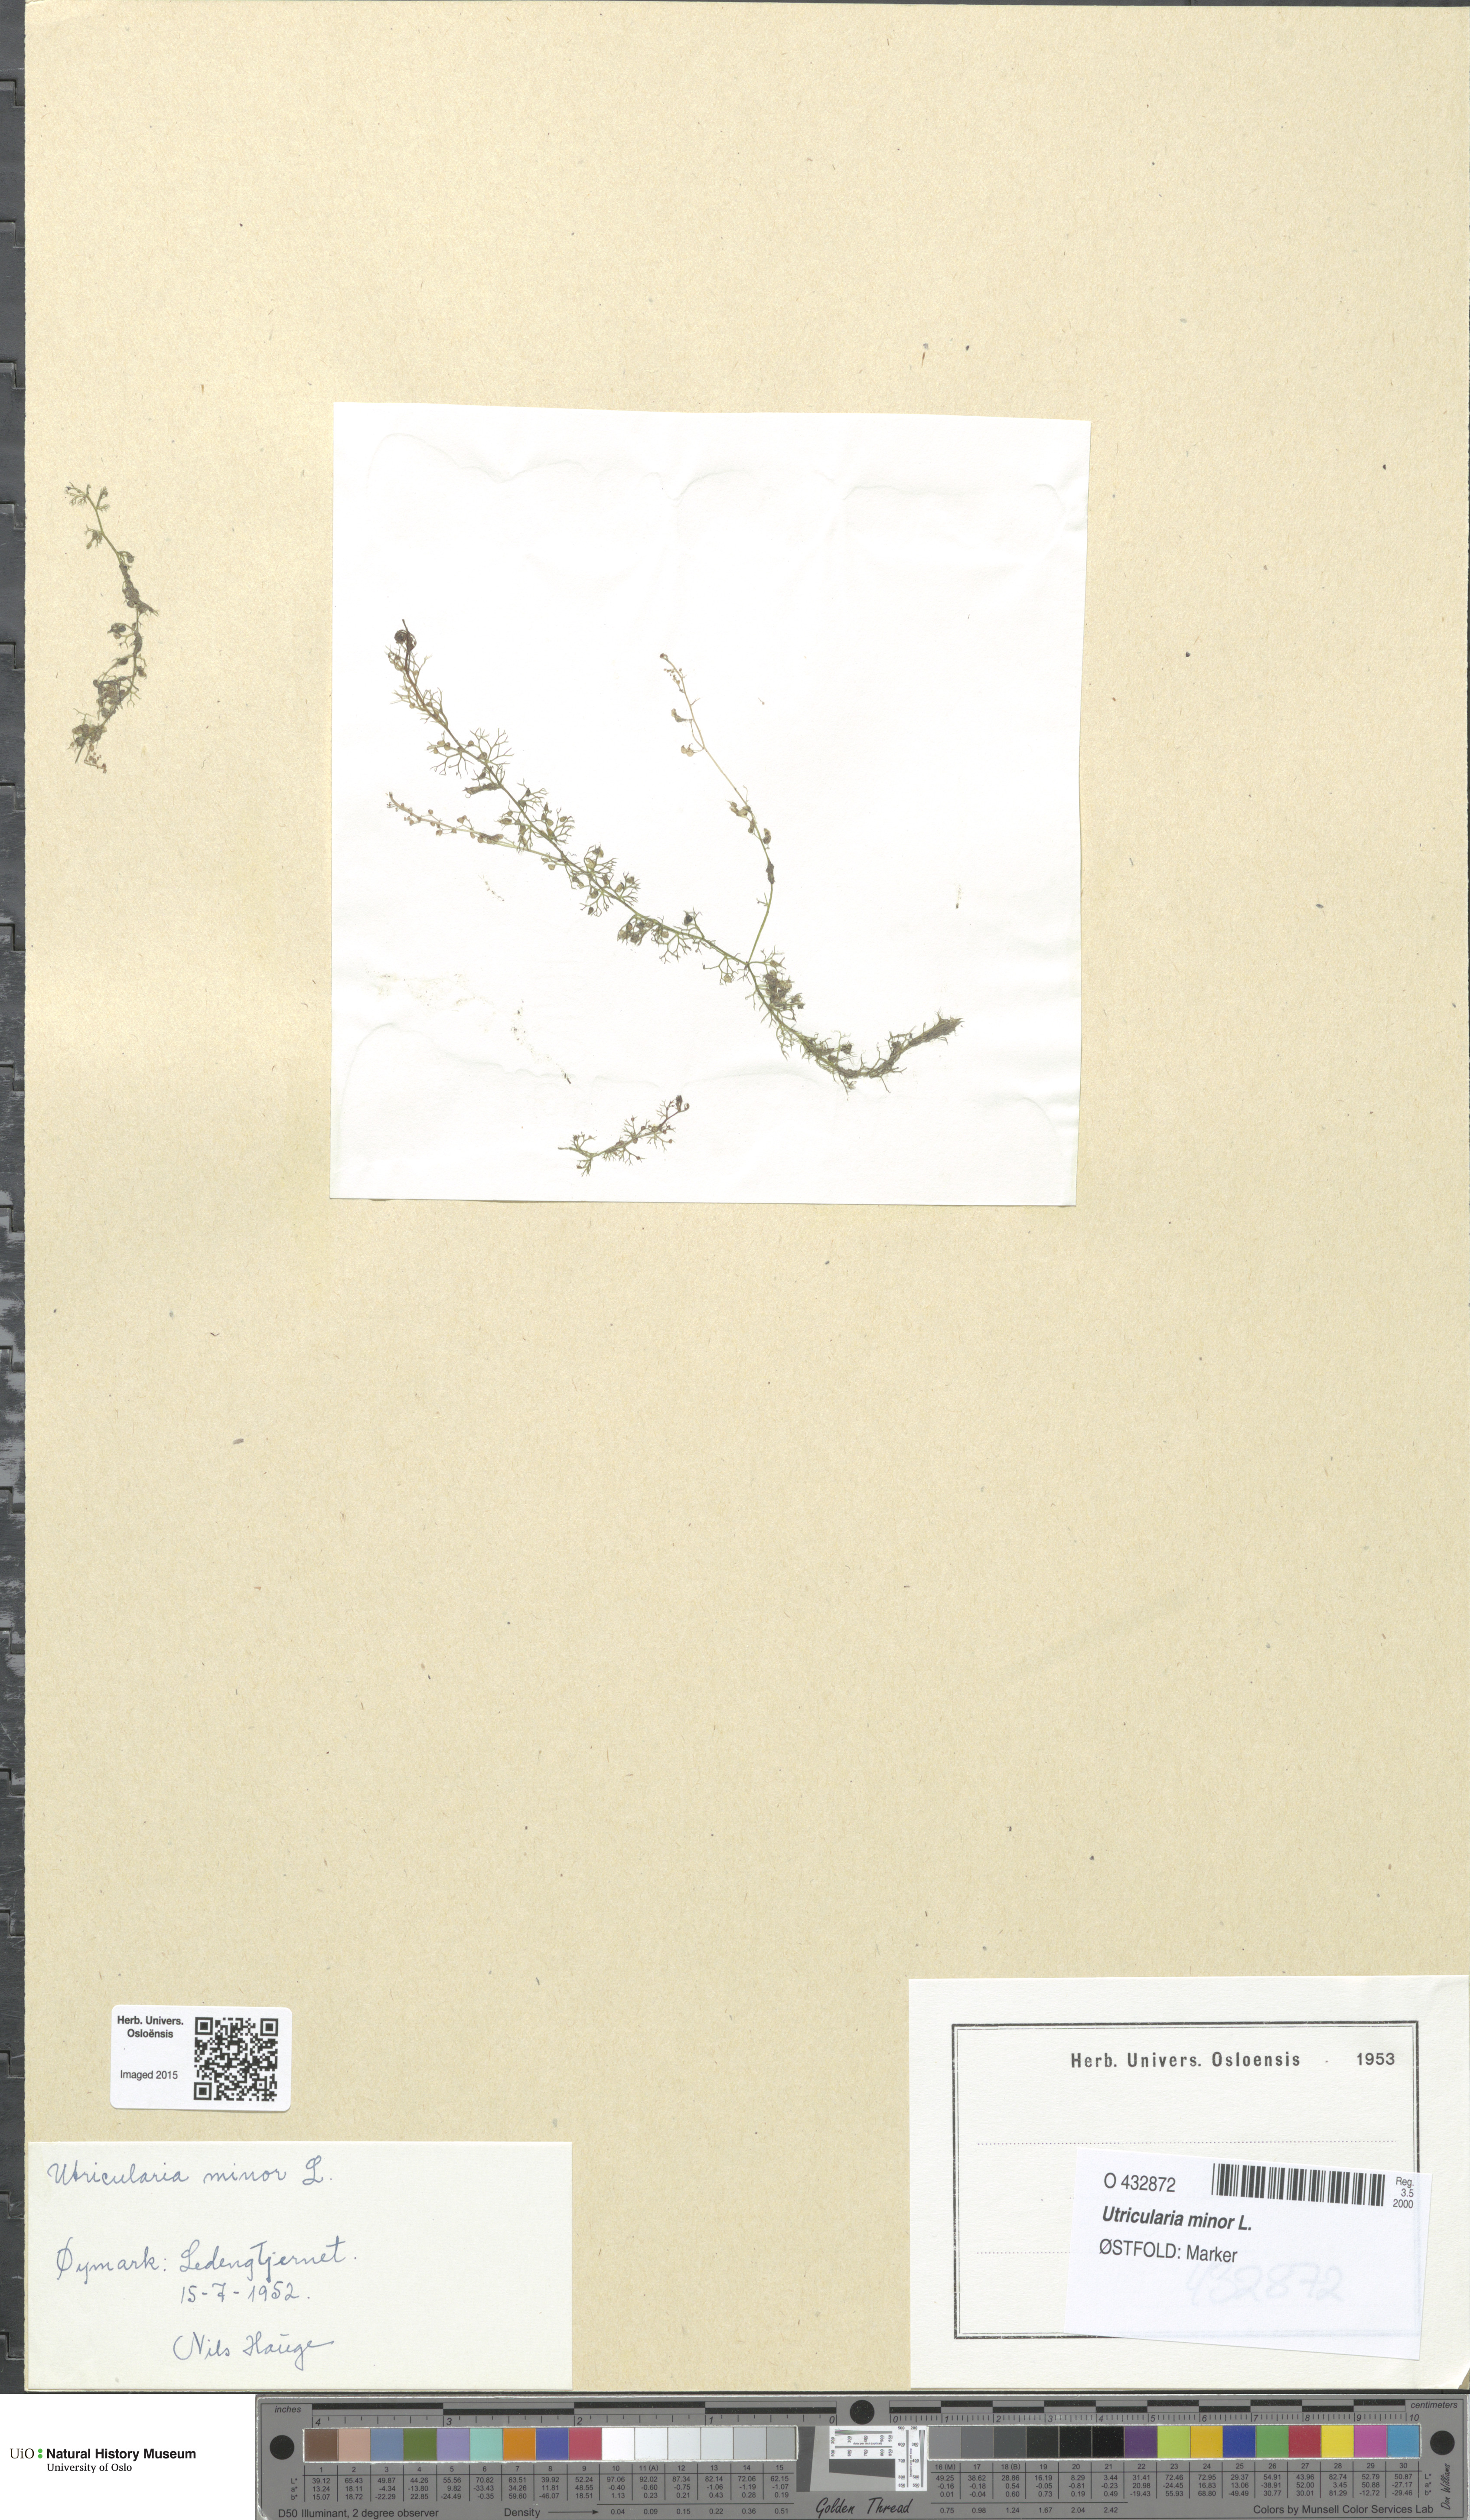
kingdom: Plantae
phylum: Tracheophyta
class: Magnoliopsida
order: Lamiales
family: Lentibulariaceae
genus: Utricularia
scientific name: Utricularia minor
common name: Lesser bladderwort
